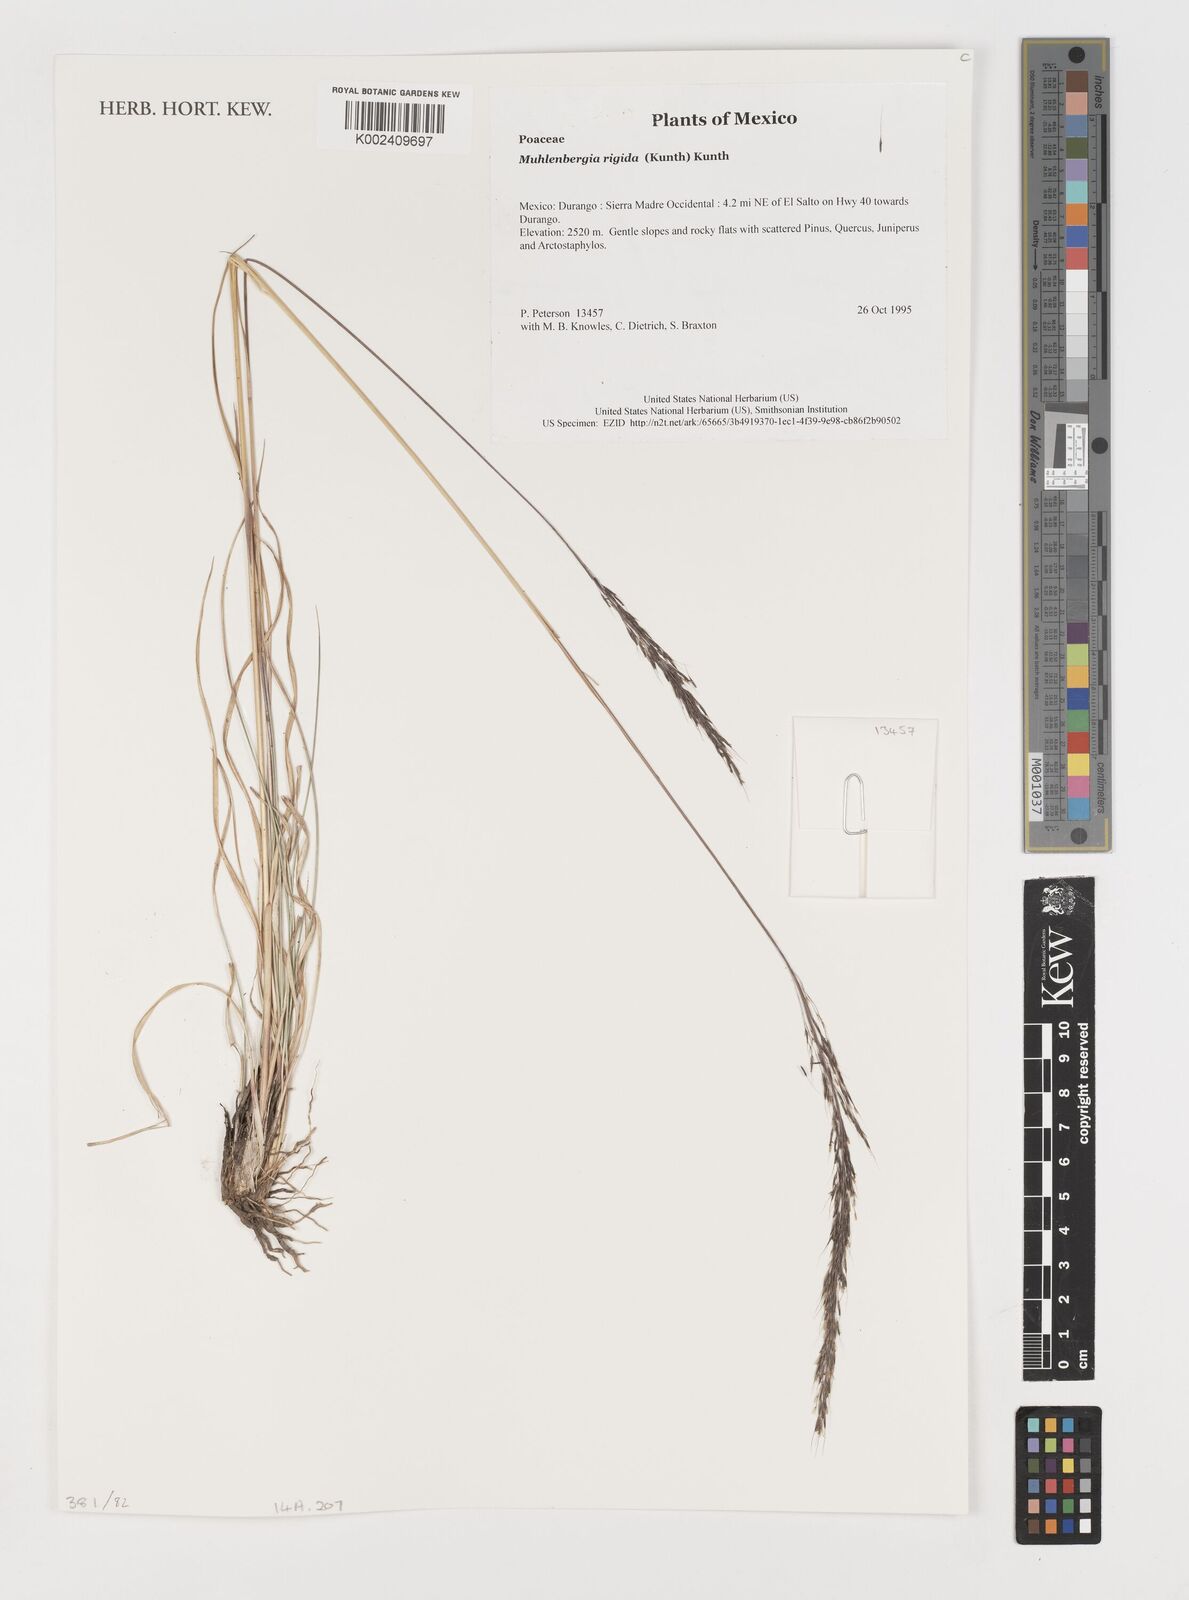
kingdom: Plantae
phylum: Tracheophyta
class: Liliopsida
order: Poales
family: Poaceae
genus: Muhlenbergia
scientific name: Muhlenbergia rigida
